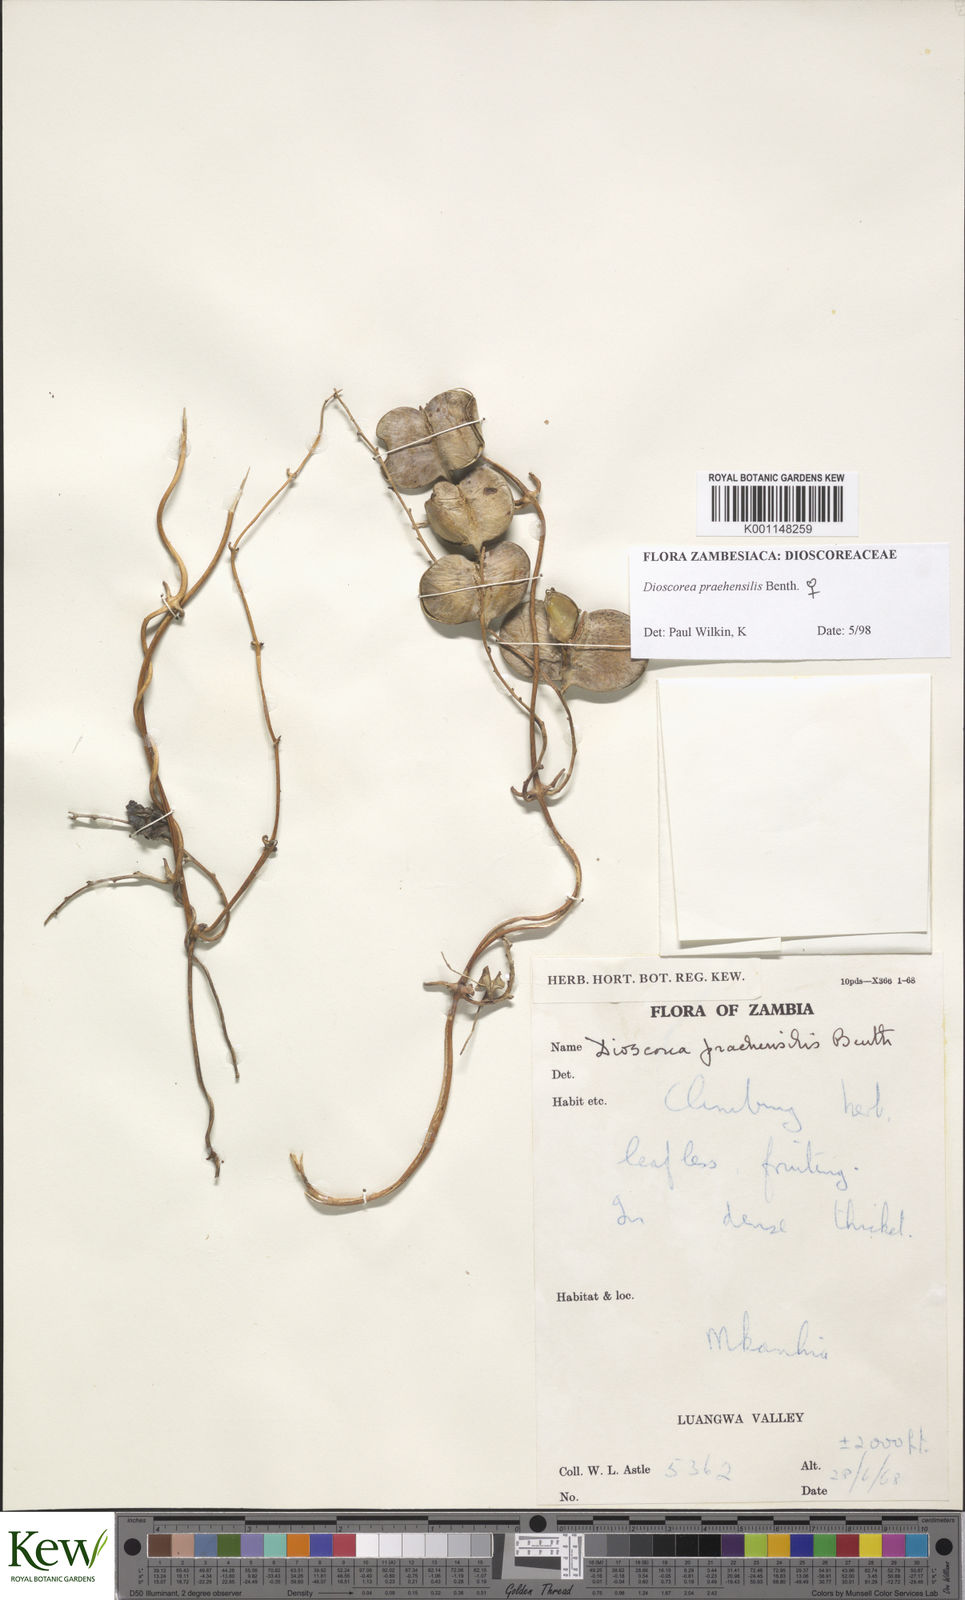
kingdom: Plantae
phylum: Tracheophyta
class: Liliopsida
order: Dioscoreales
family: Dioscoreaceae
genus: Dioscorea
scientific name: Dioscorea praehensilis
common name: Bush yam
